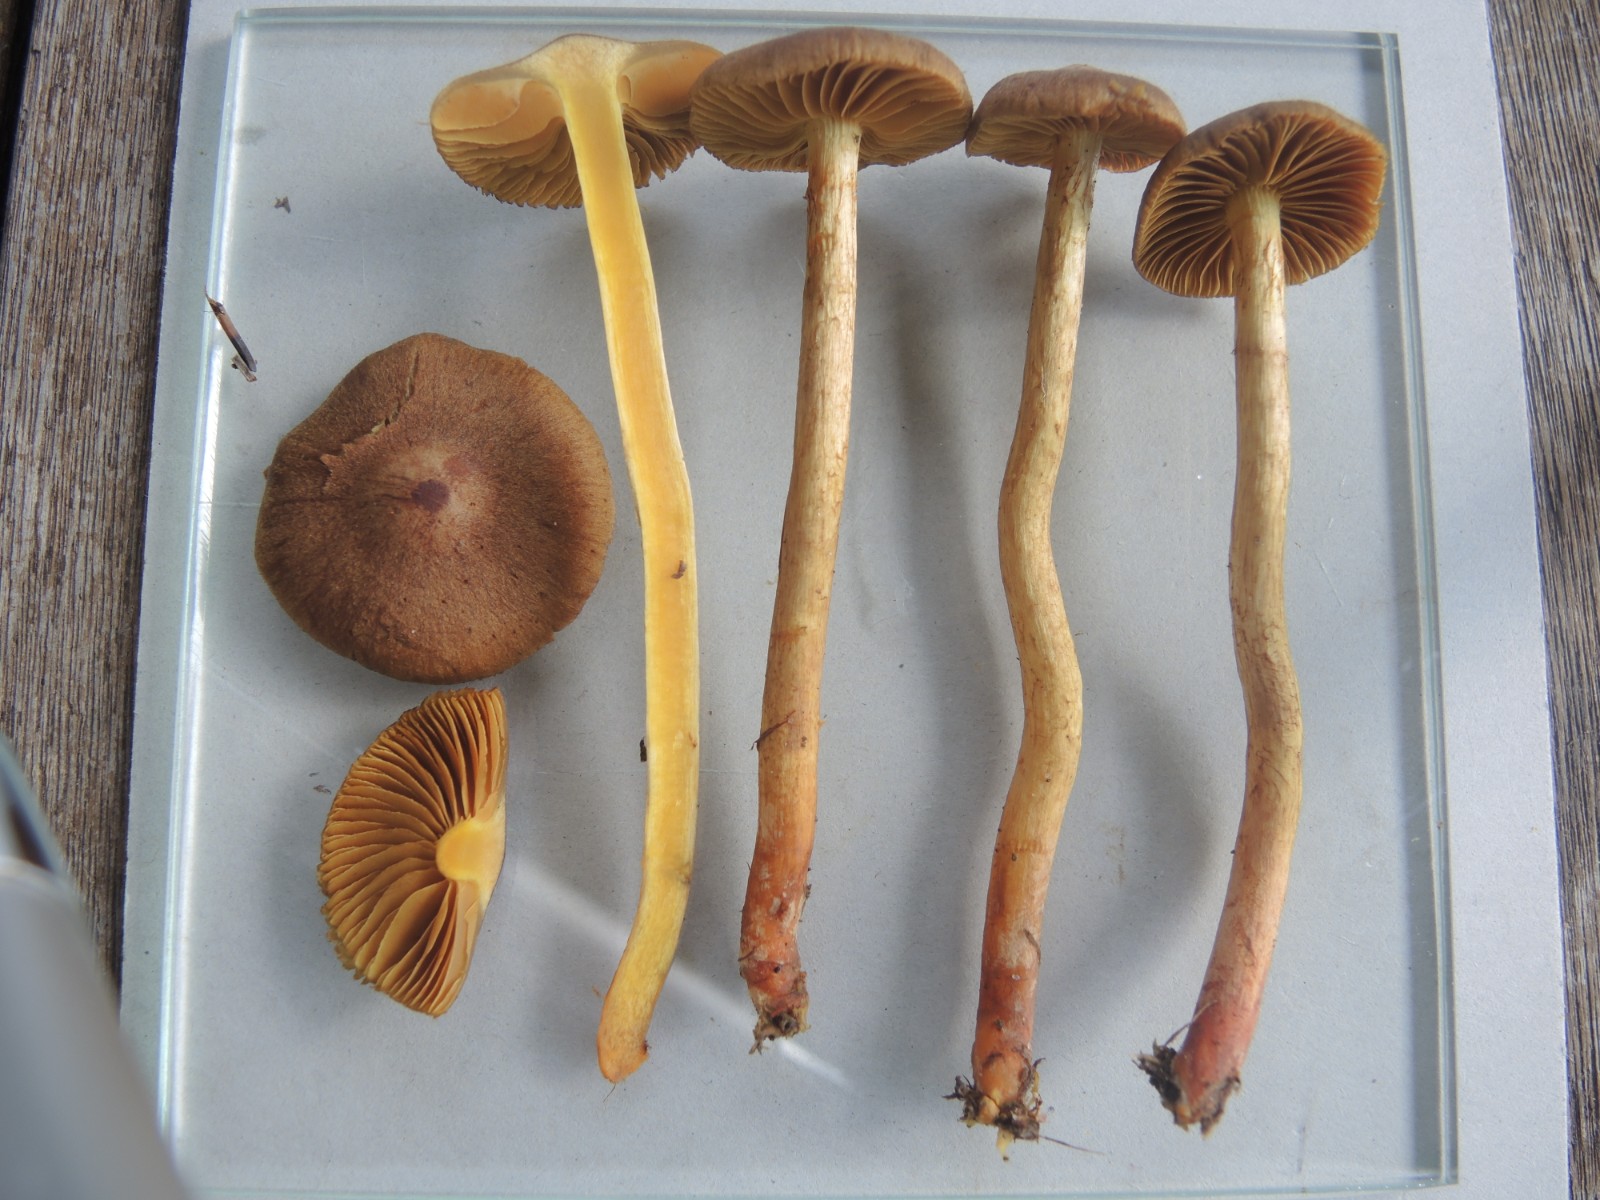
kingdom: Fungi
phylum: Basidiomycota
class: Agaricomycetes
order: Agaricales
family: Cortinariaceae
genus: Cortinarius
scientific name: Cortinarius bataillei
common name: orangefodet slørhat
